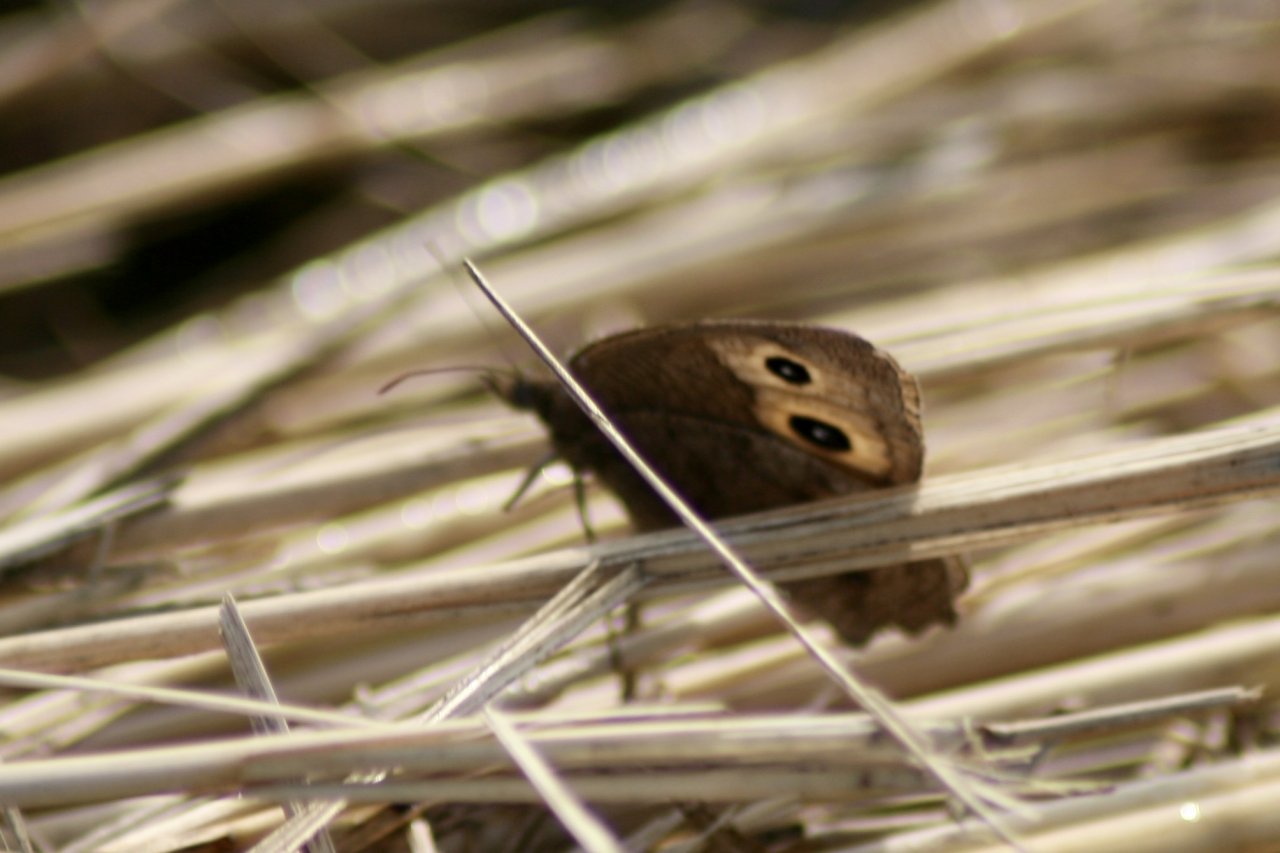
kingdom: Animalia
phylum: Arthropoda
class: Insecta
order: Lepidoptera
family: Nymphalidae
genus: Cercyonis
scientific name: Cercyonis pegala
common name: Common Wood-Nymph
